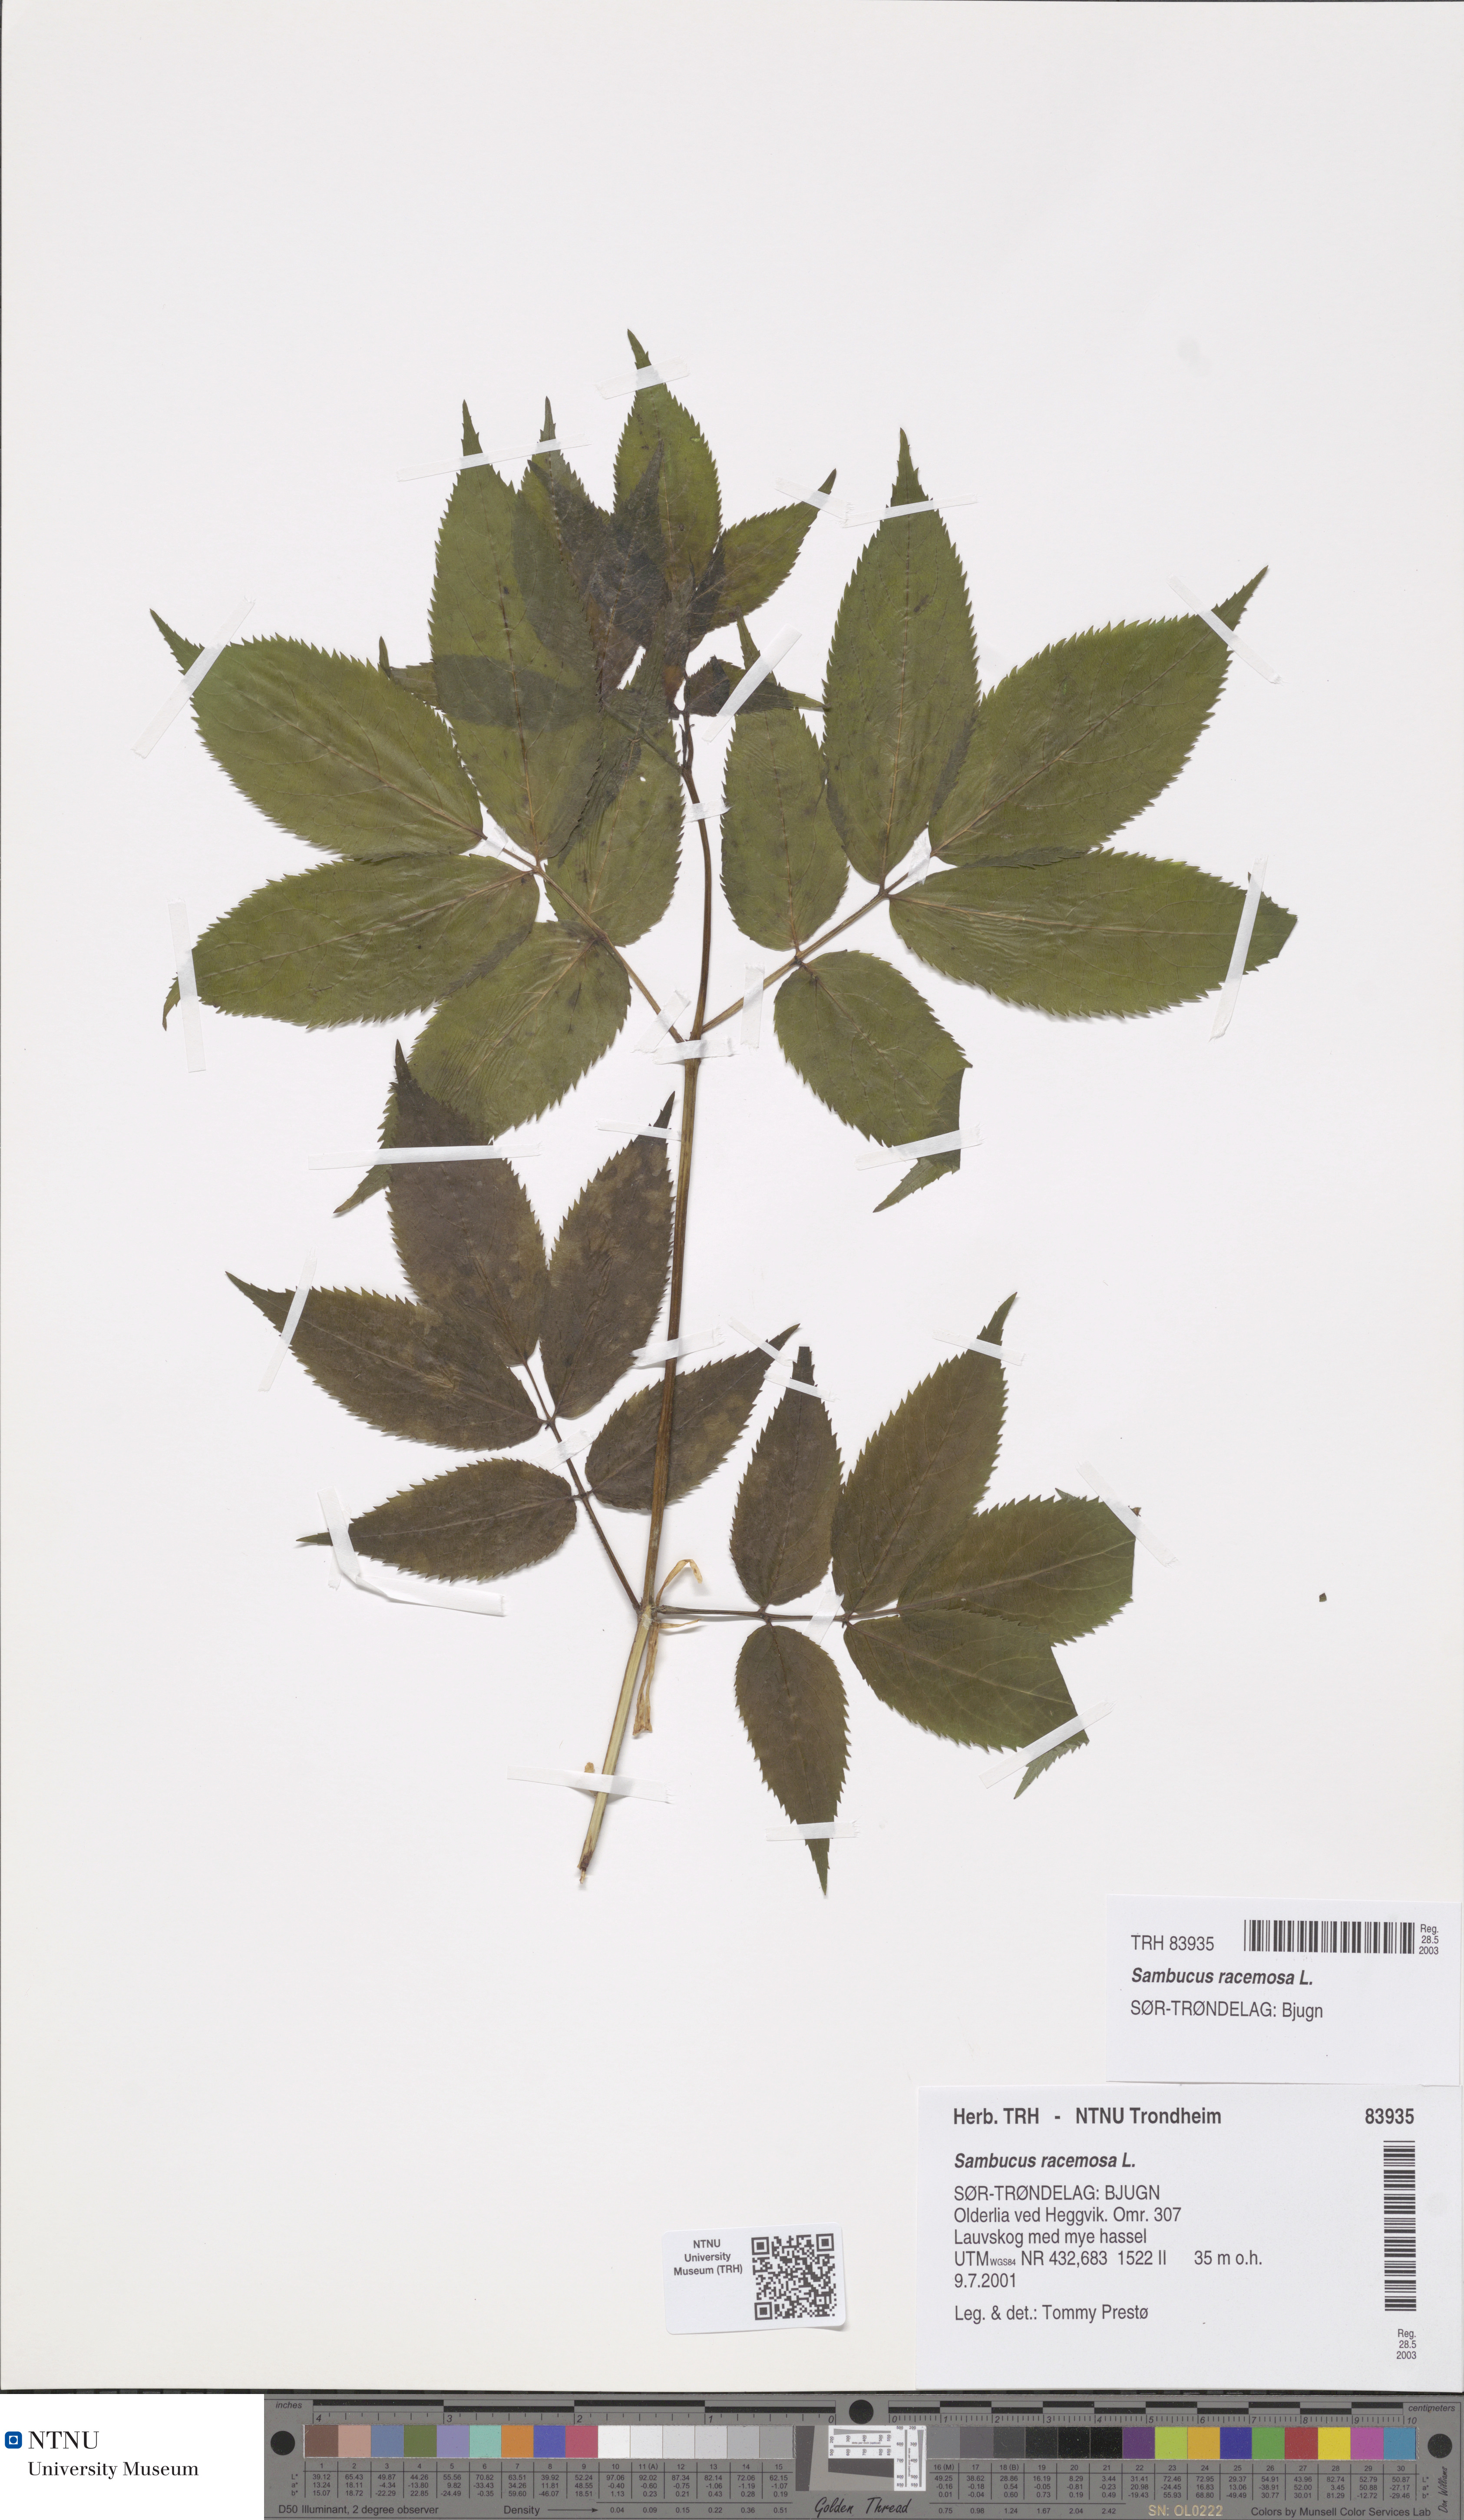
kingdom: Plantae
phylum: Tracheophyta
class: Magnoliopsida
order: Dipsacales
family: Viburnaceae
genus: Sambucus
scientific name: Sambucus racemosa
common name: Red-berried elder
